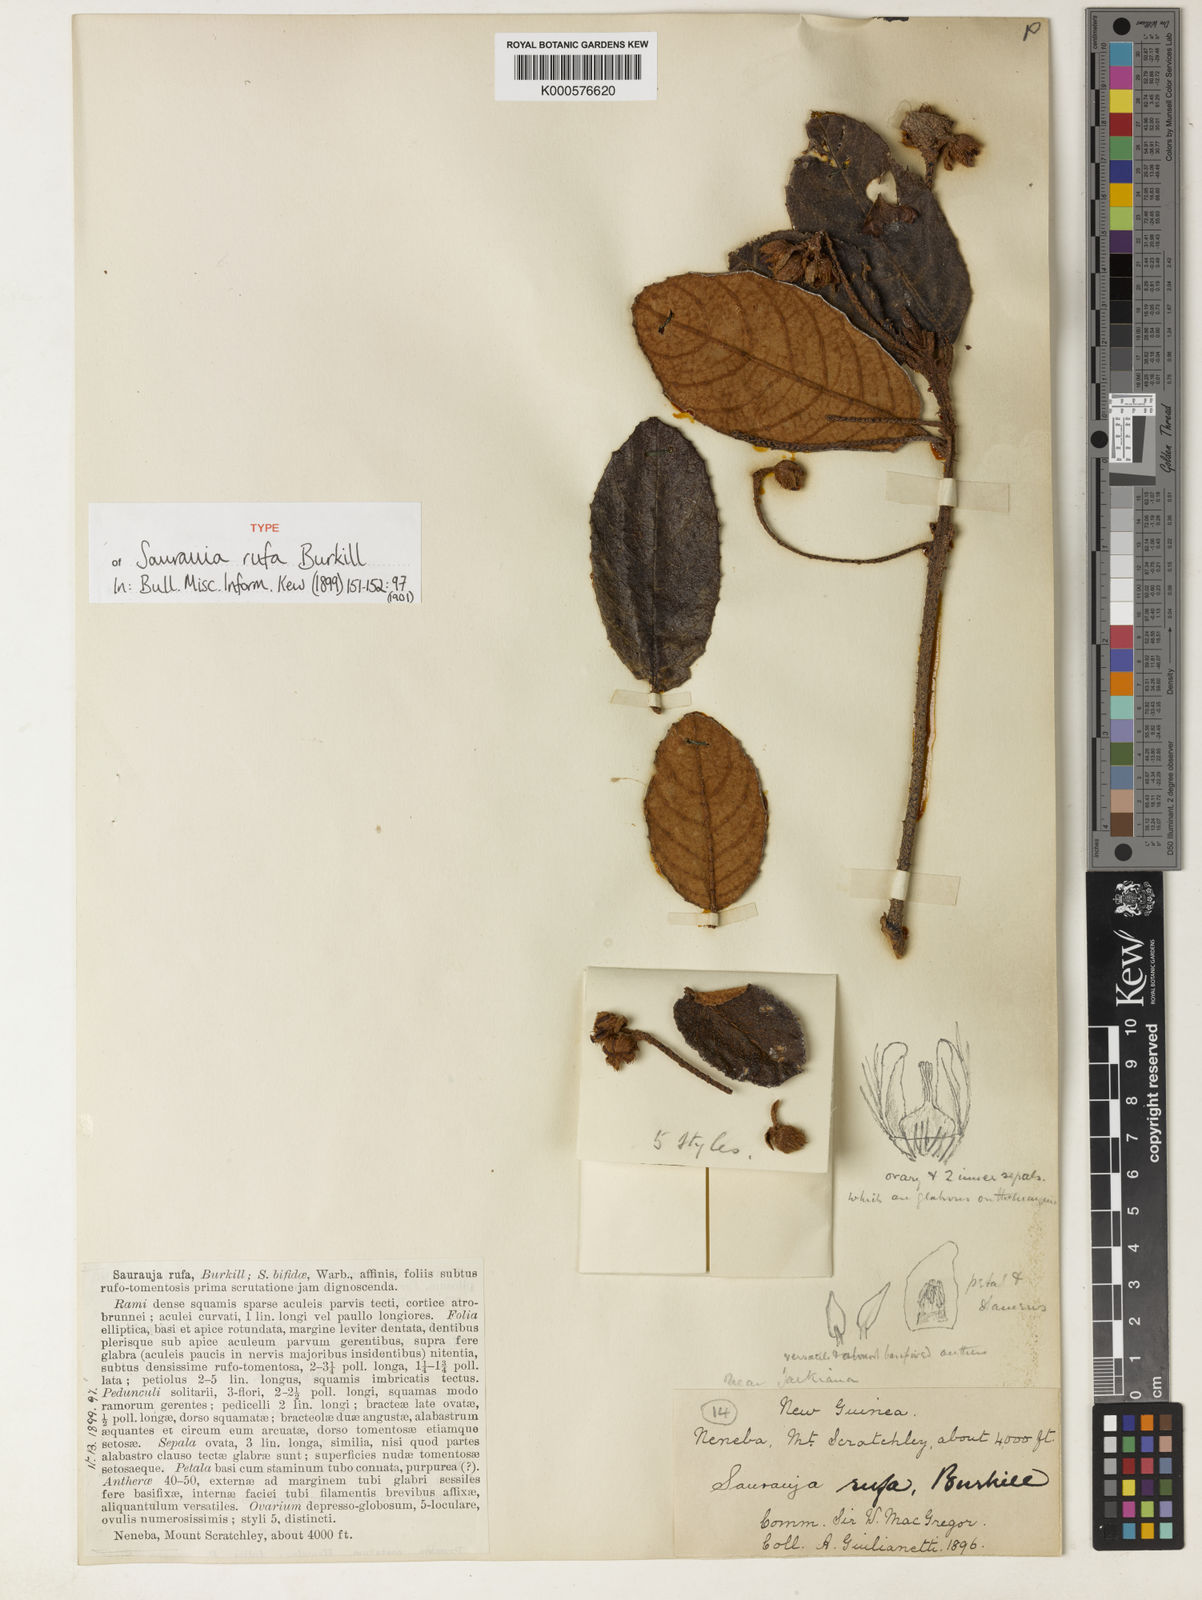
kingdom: Plantae
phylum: Tracheophyta
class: Magnoliopsida
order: Ericales
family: Actinidiaceae
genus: Saurauia
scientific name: Saurauia rufa
